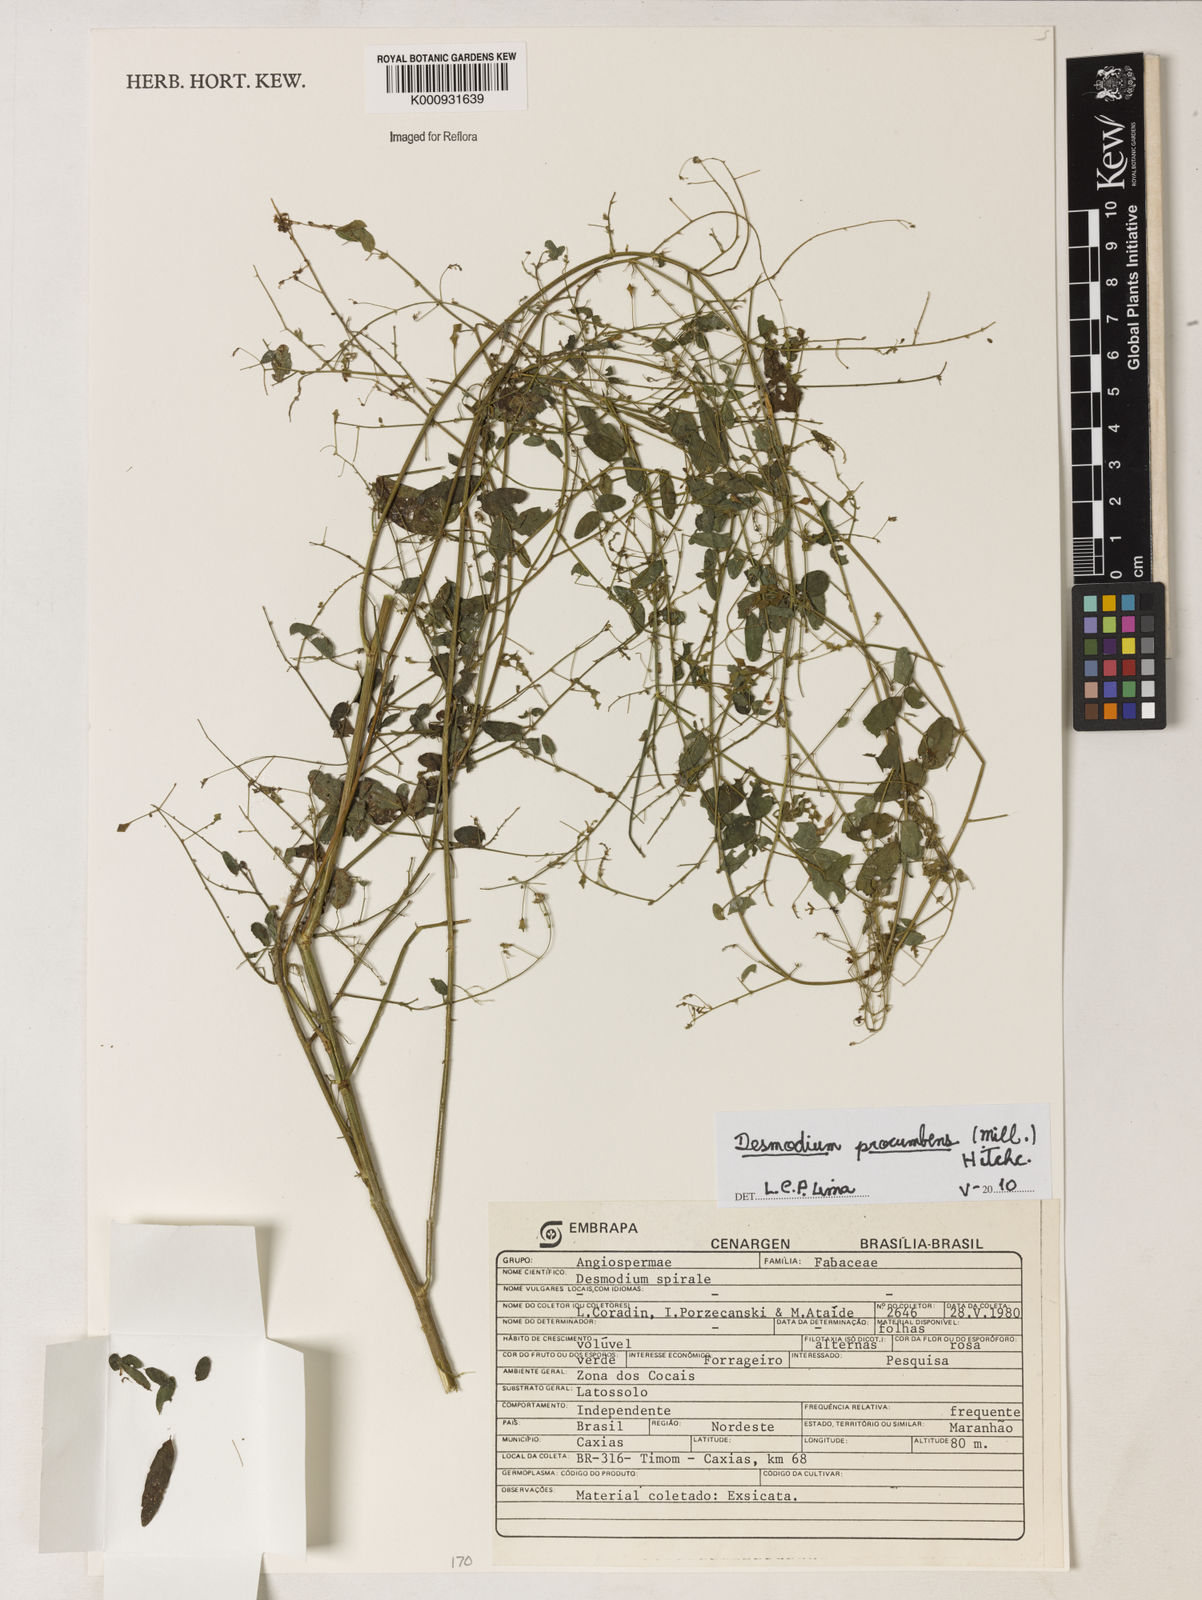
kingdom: Plantae
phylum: Tracheophyta
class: Magnoliopsida
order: Fabales
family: Fabaceae
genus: Desmodium
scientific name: Desmodium procumbens
